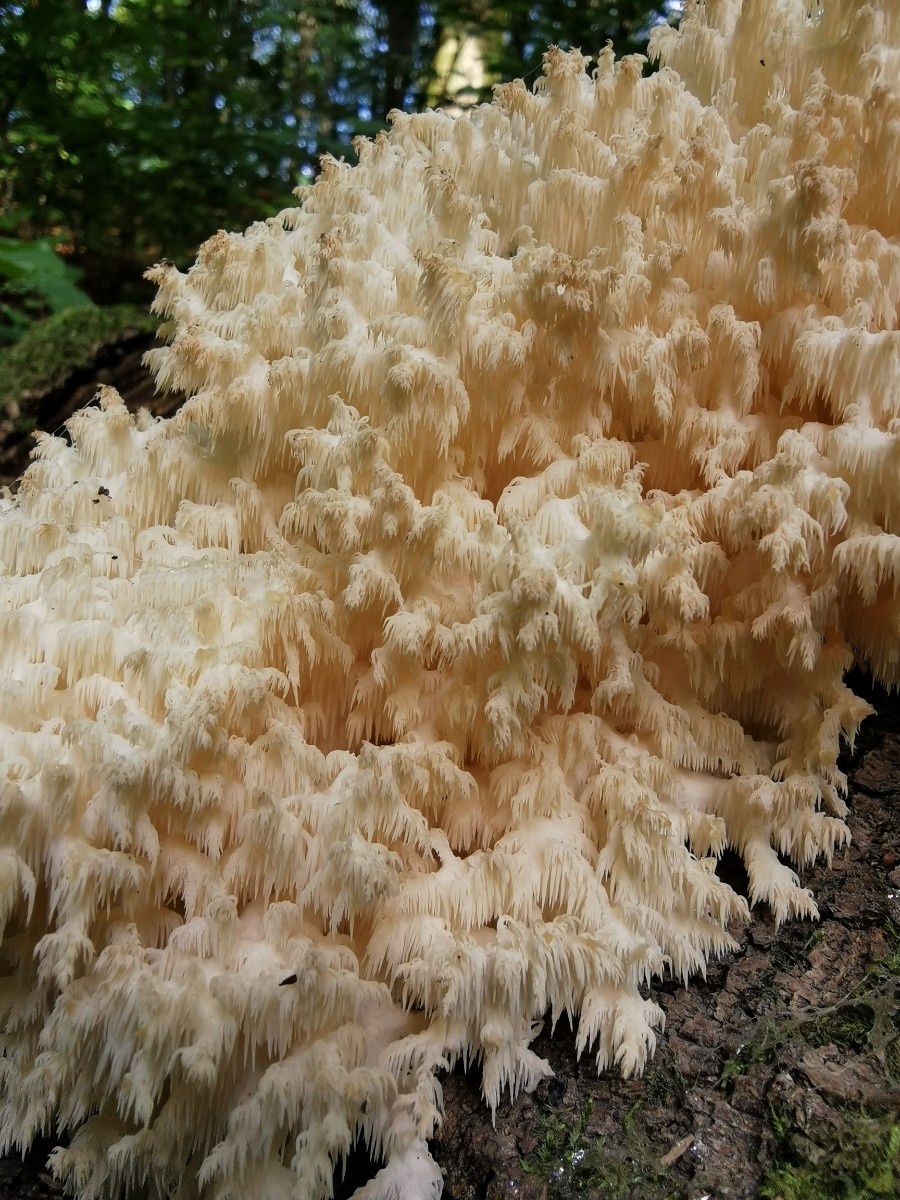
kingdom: Fungi
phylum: Basidiomycota
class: Agaricomycetes
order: Russulales
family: Hericiaceae
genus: Hericium
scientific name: Hericium coralloides
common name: koralpigsvamp
